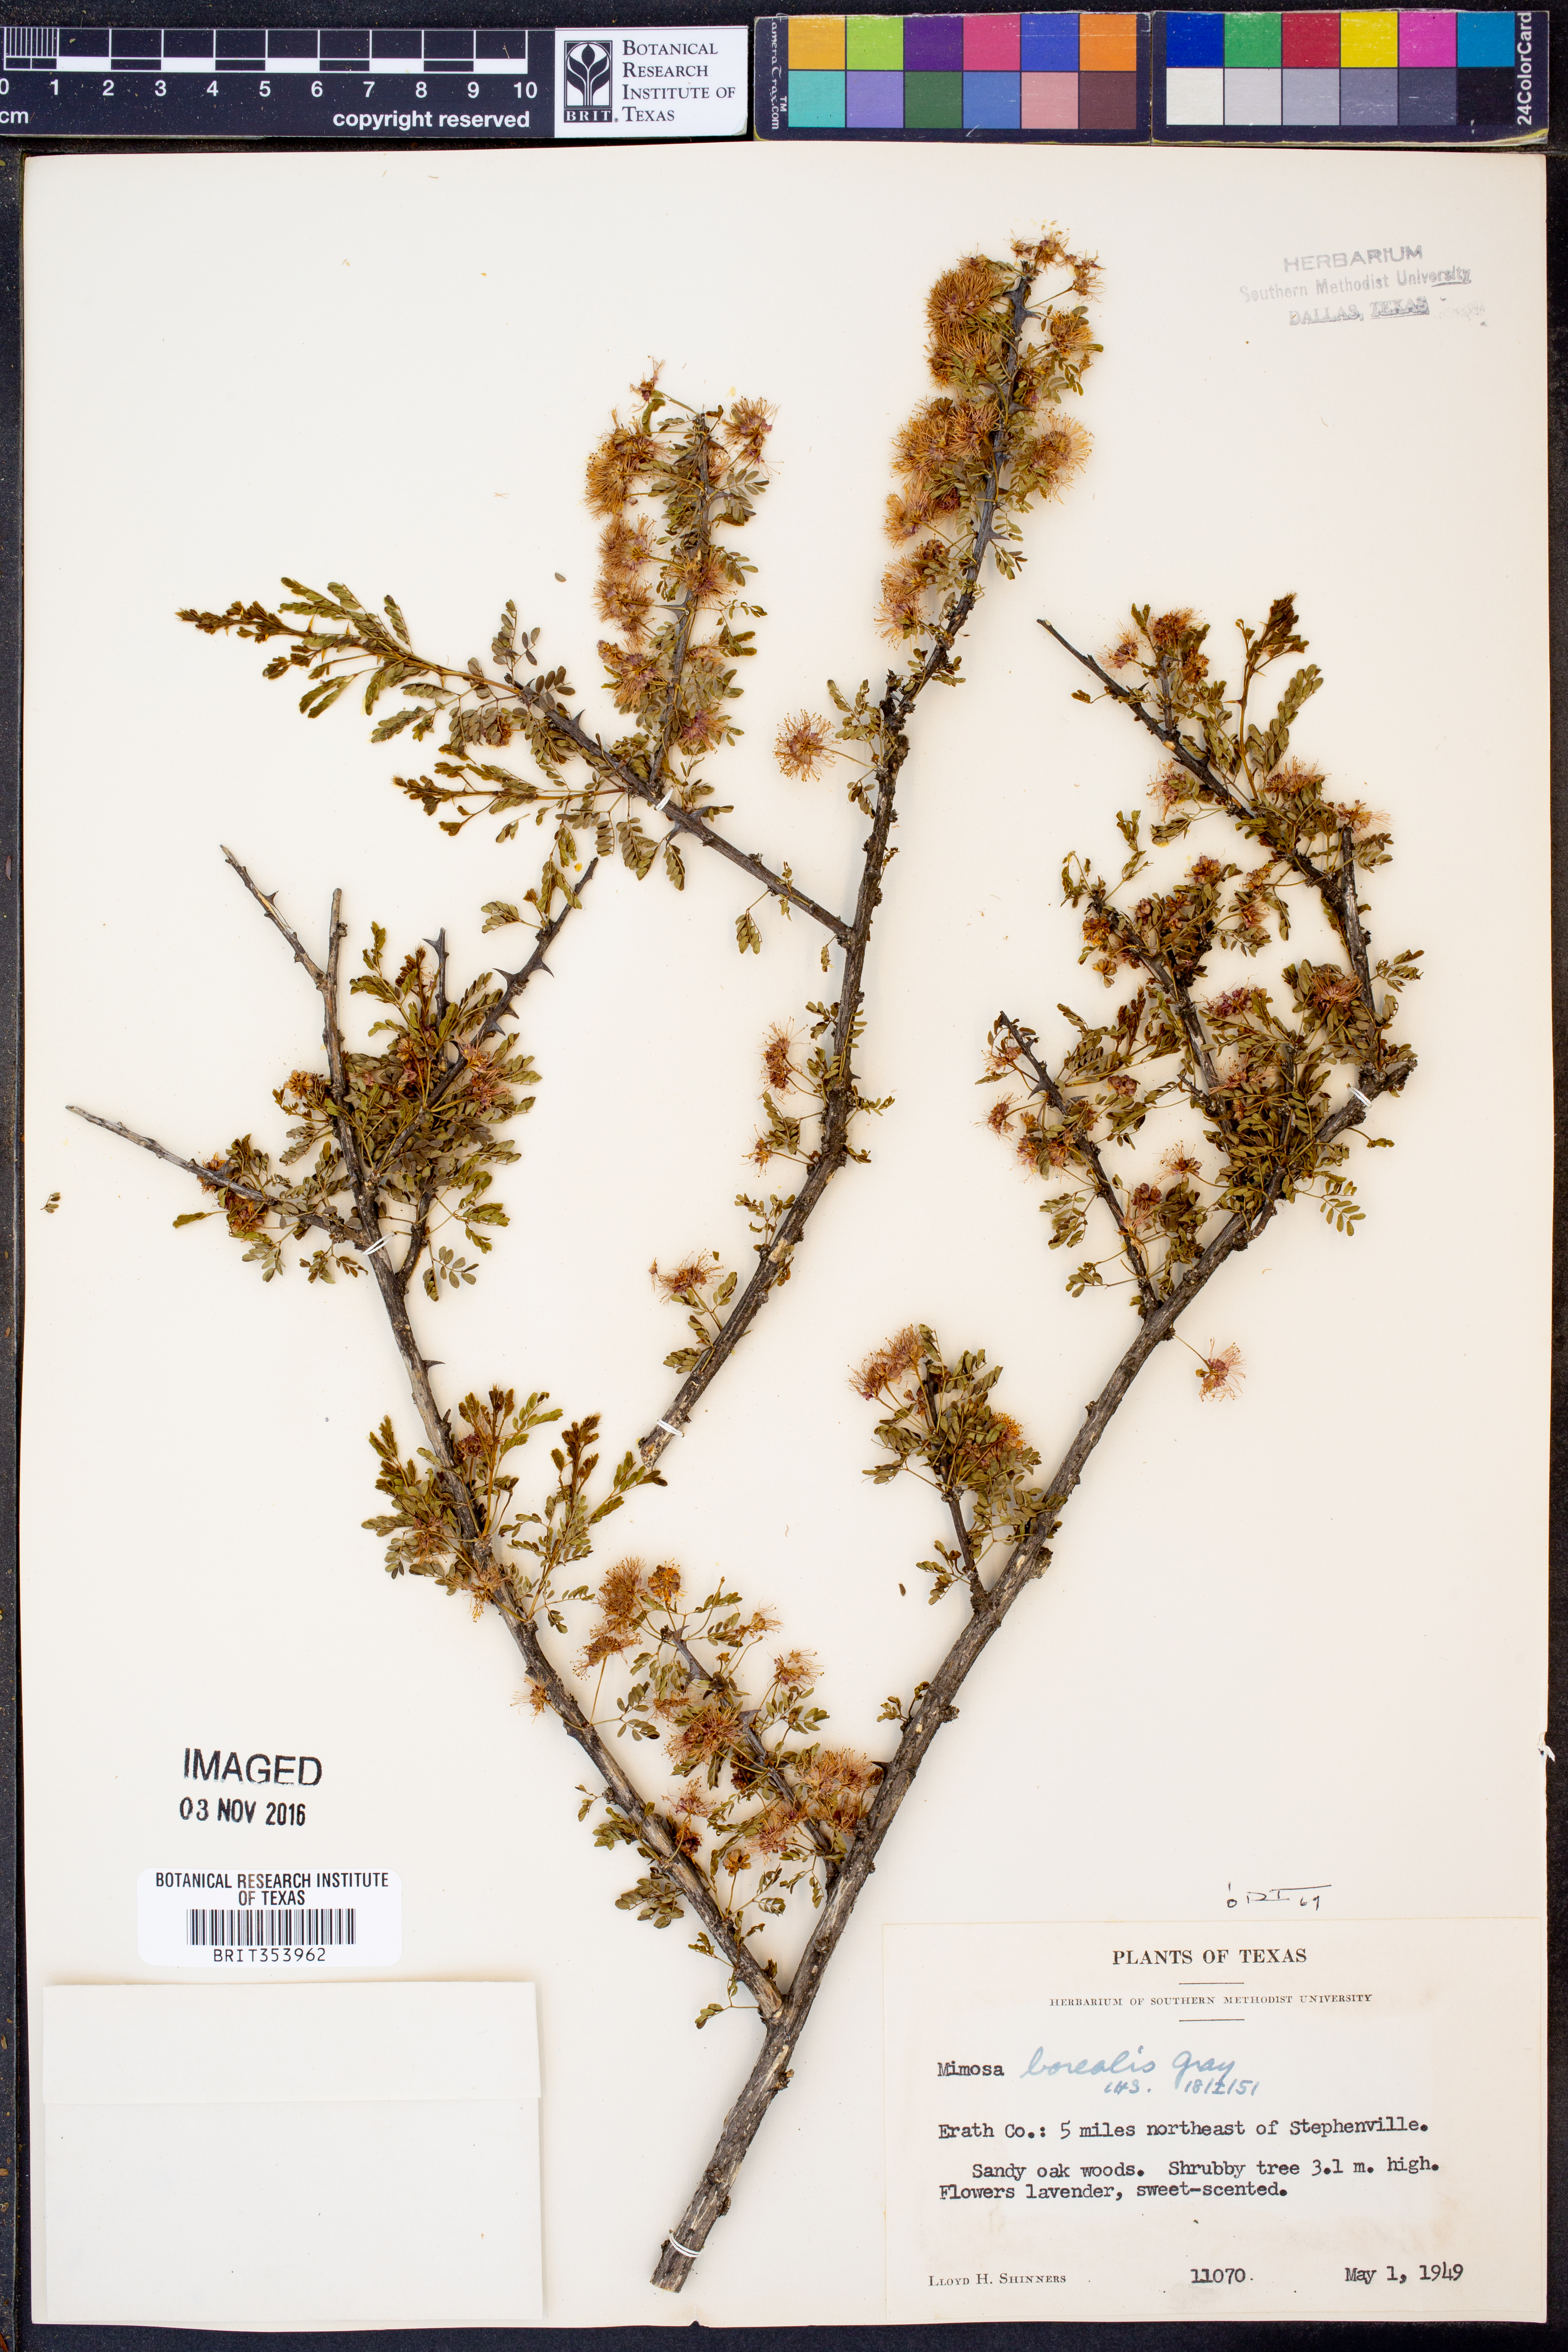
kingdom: Plantae
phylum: Tracheophyta
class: Magnoliopsida
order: Fabales
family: Fabaceae
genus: Mimosa
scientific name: Mimosa borealis
